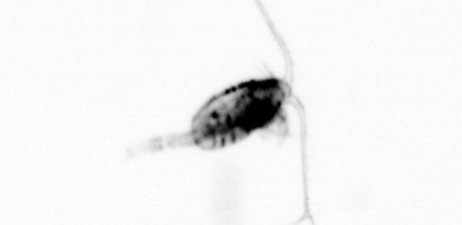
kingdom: Animalia
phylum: Arthropoda
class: Copepoda
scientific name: Copepoda
